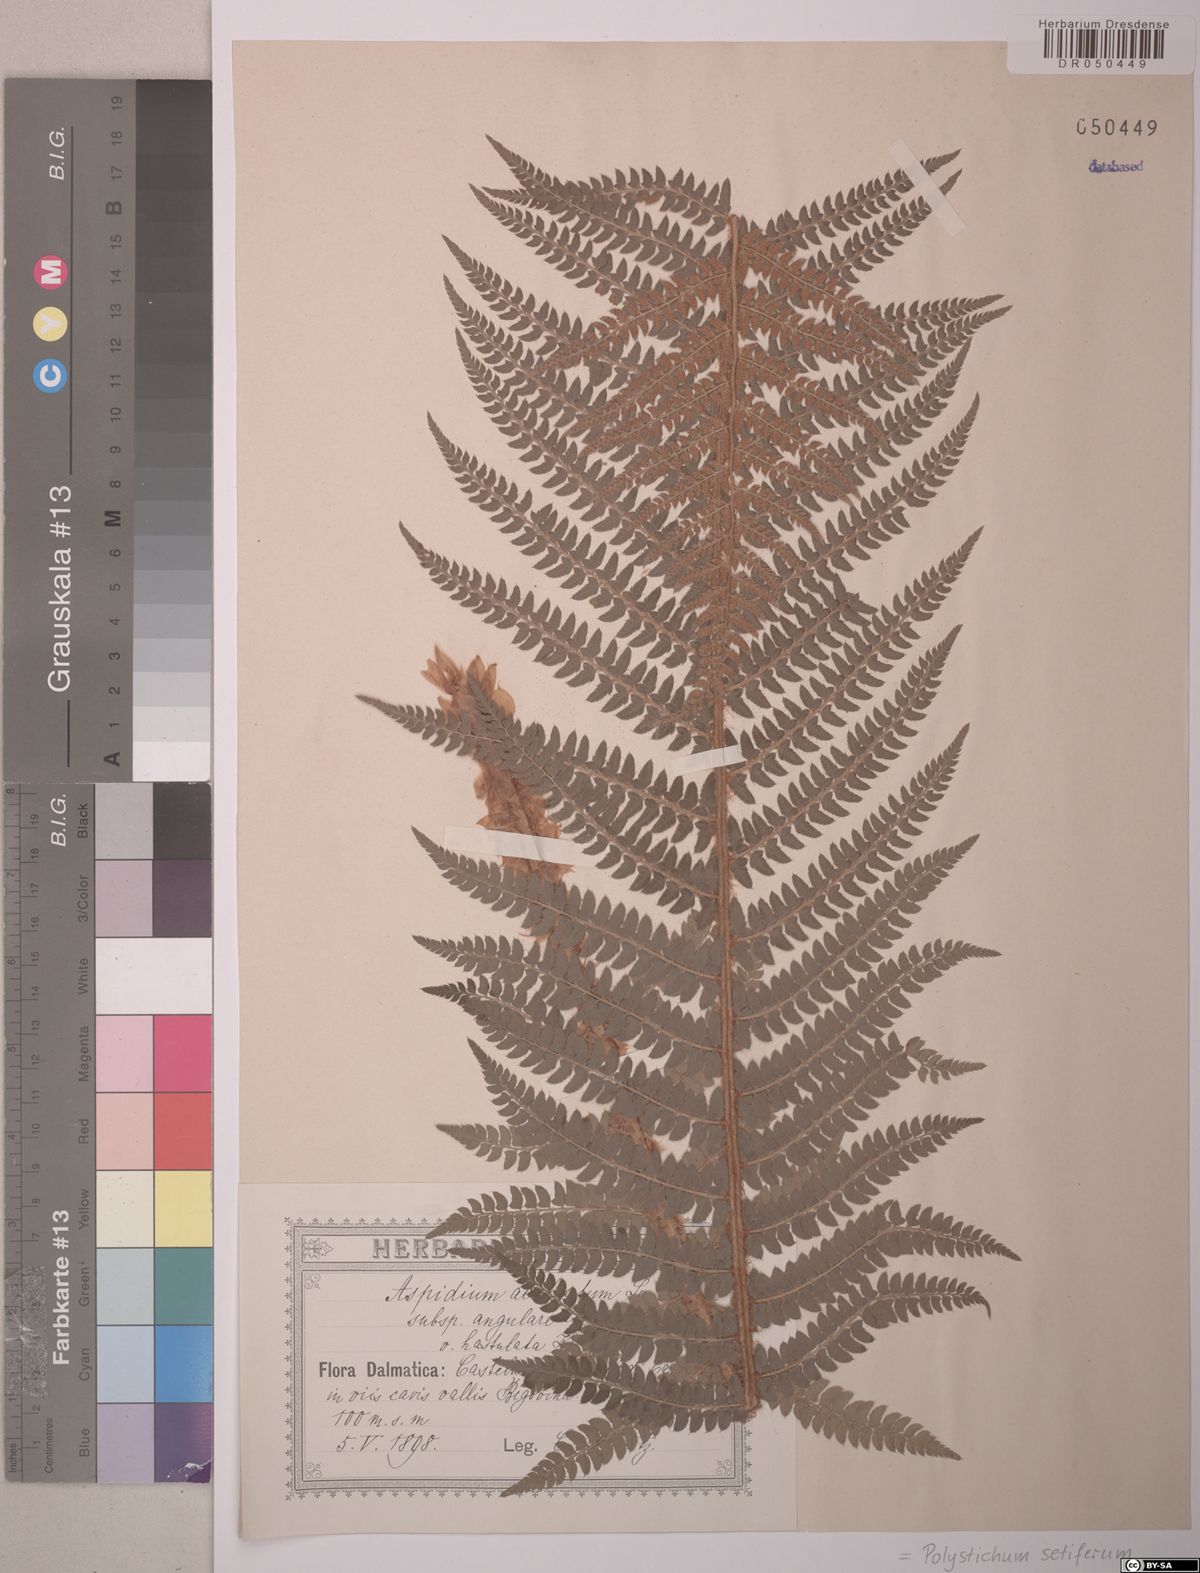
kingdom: Plantae
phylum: Tracheophyta
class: Polypodiopsida
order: Polypodiales
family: Dryopteridaceae
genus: Polystichum
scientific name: Polystichum setiferum
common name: Soft shield-fern
